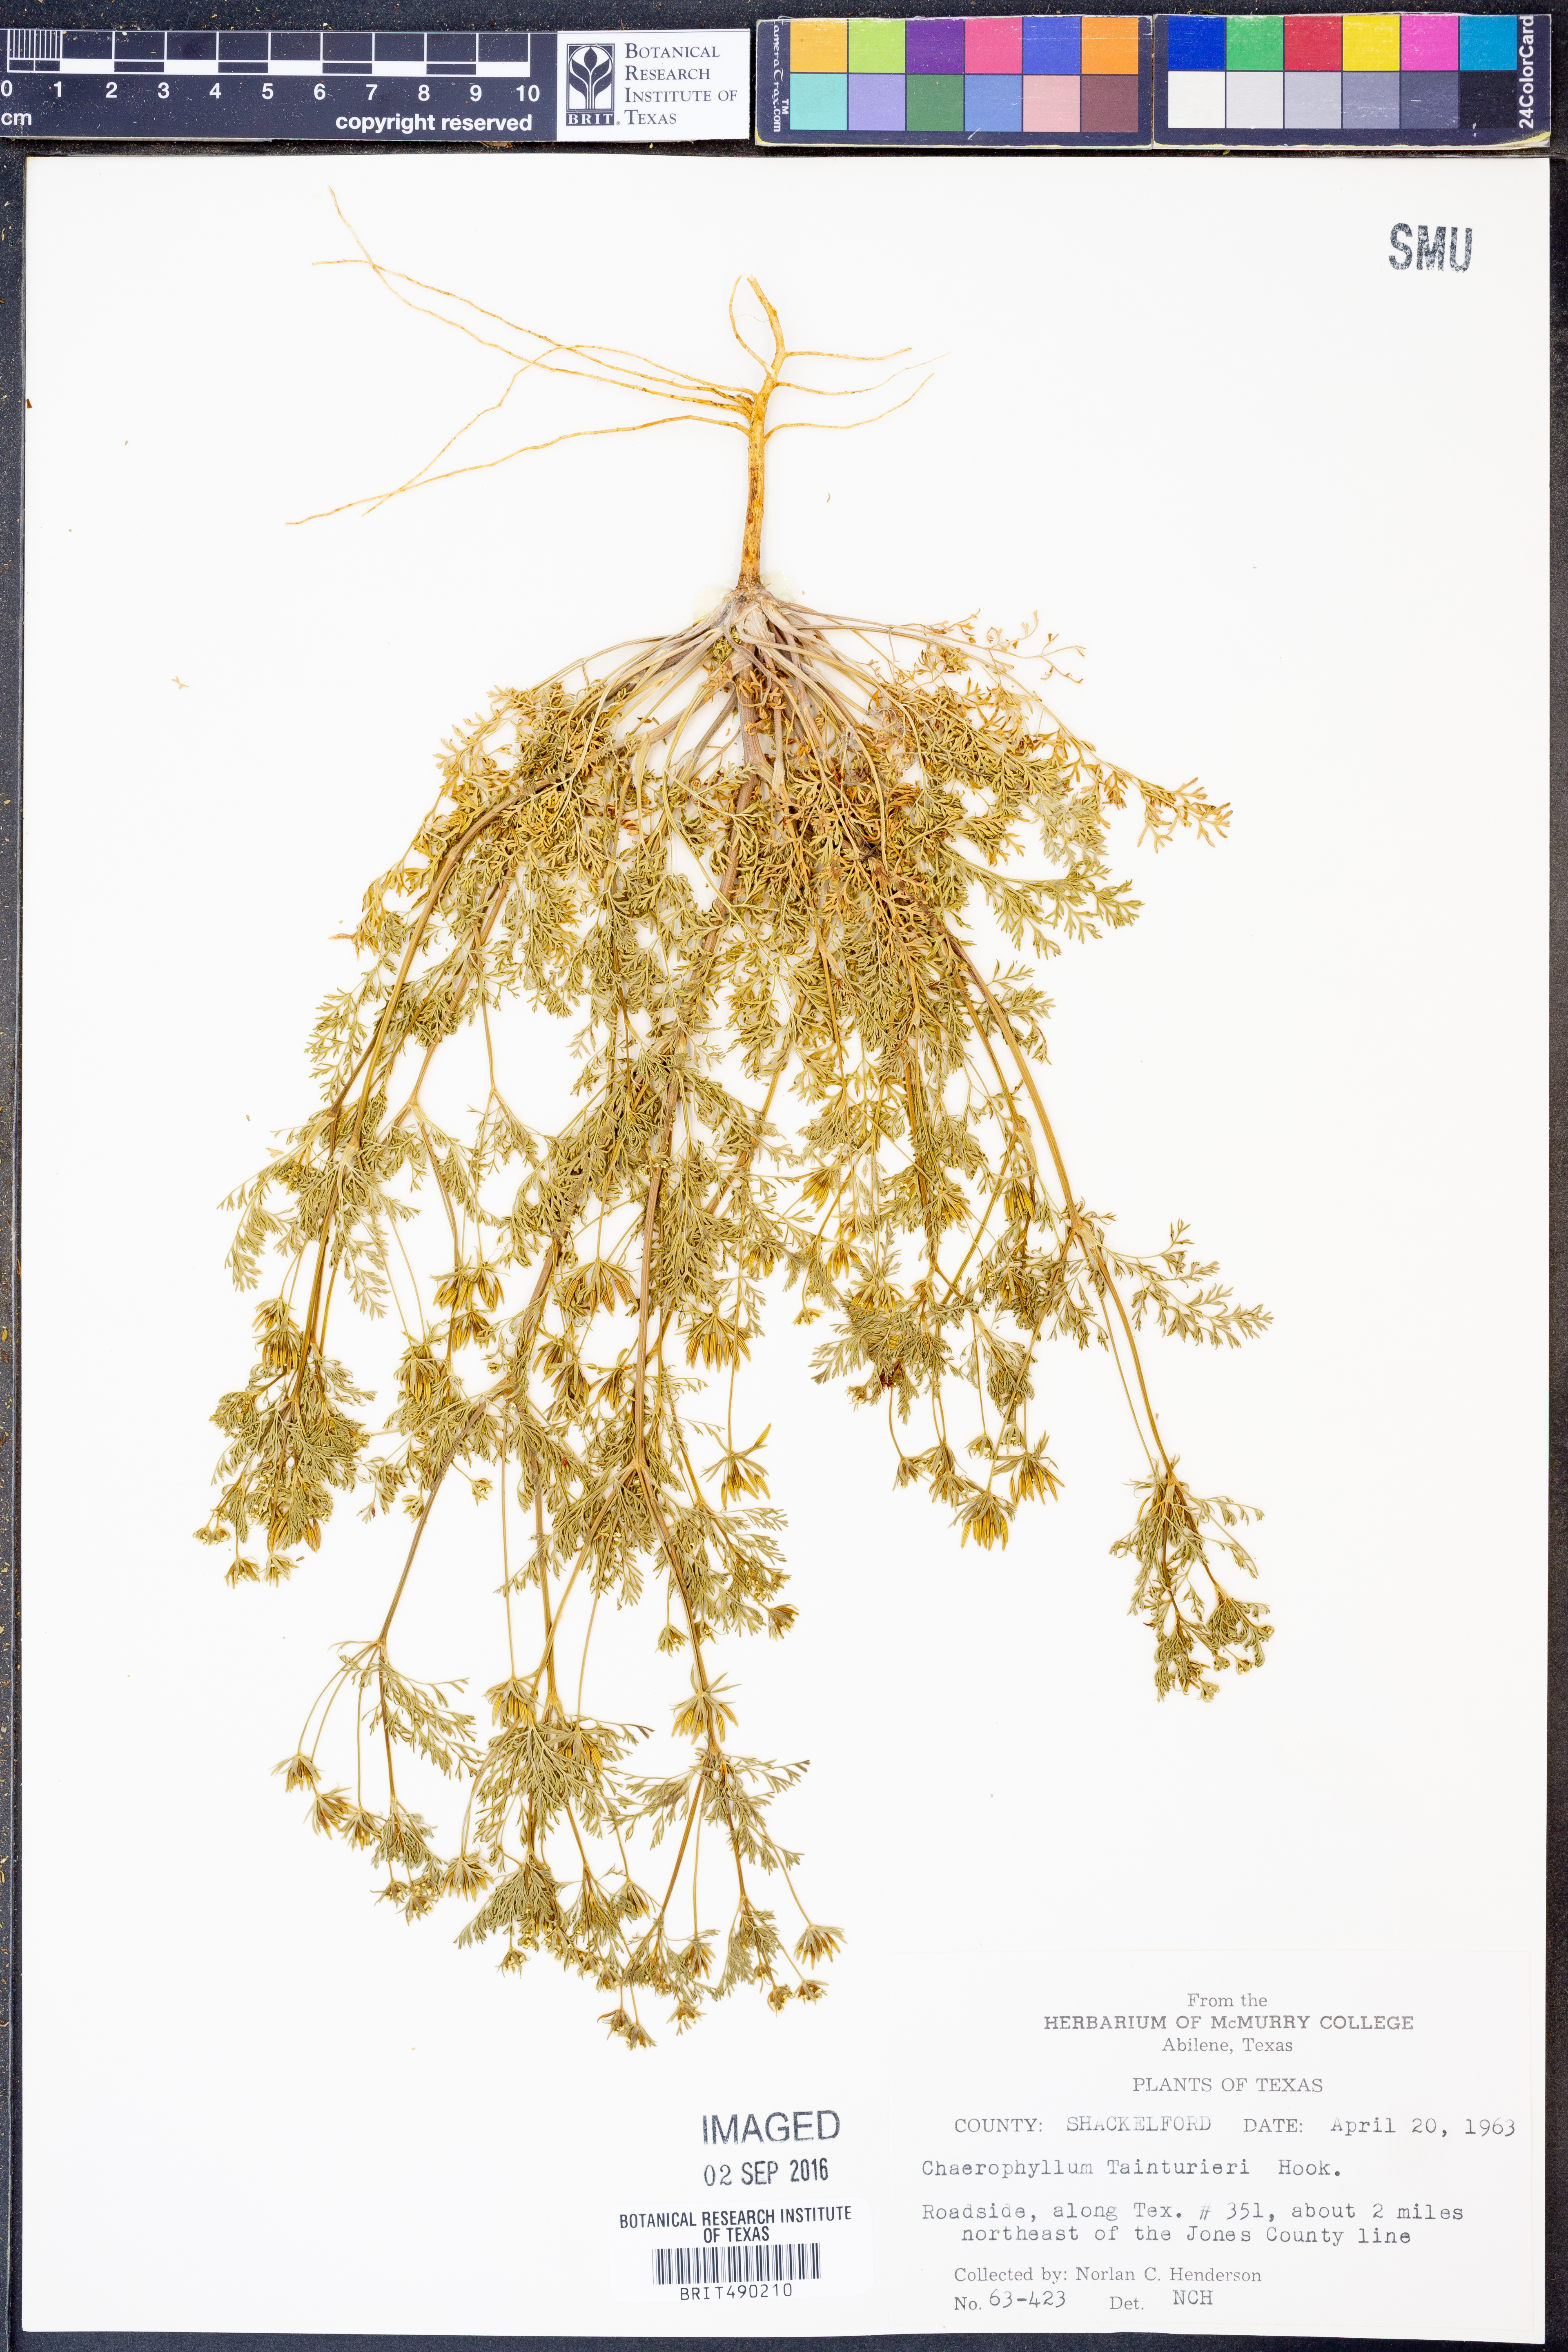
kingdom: Plantae
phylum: Tracheophyta
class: Magnoliopsida
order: Apiales
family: Apiaceae
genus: Chaerophyllum
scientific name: Chaerophyllum tainturieri
